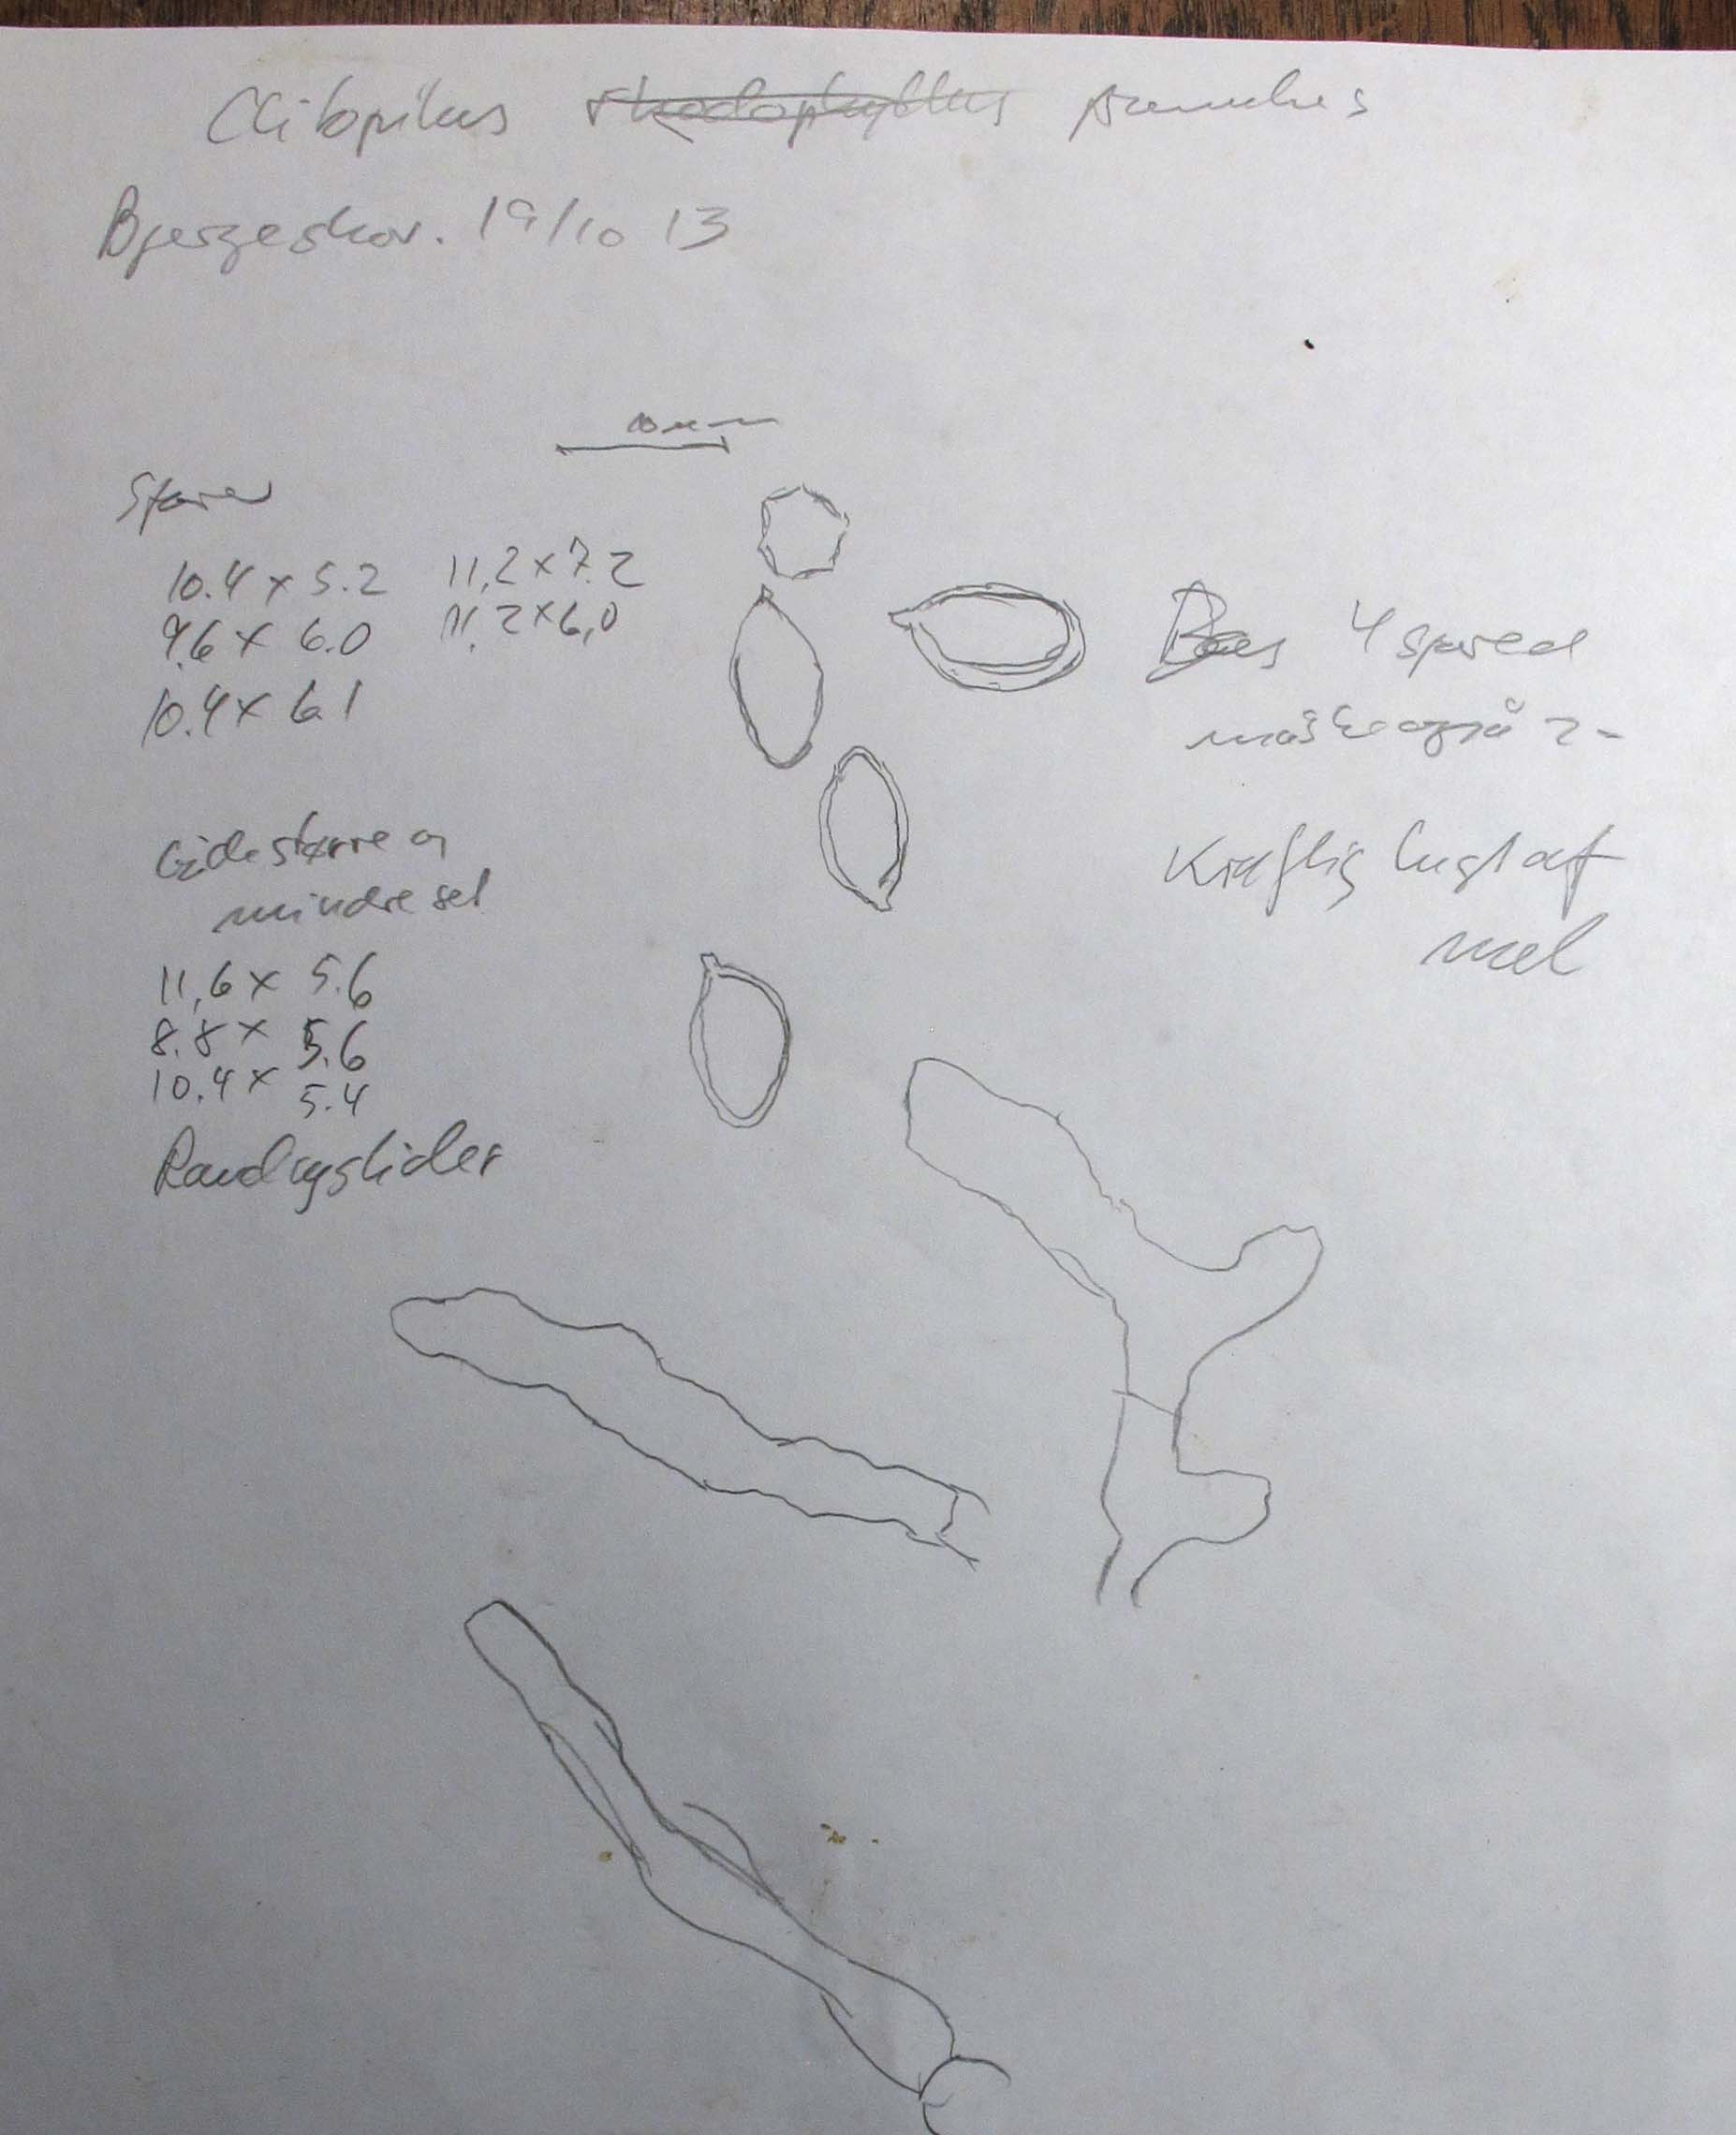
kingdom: Fungi
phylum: Basidiomycota
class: Agaricomycetes
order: Agaricales
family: Entolomataceae
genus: Clitopilus
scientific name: Clitopilus prunulus
